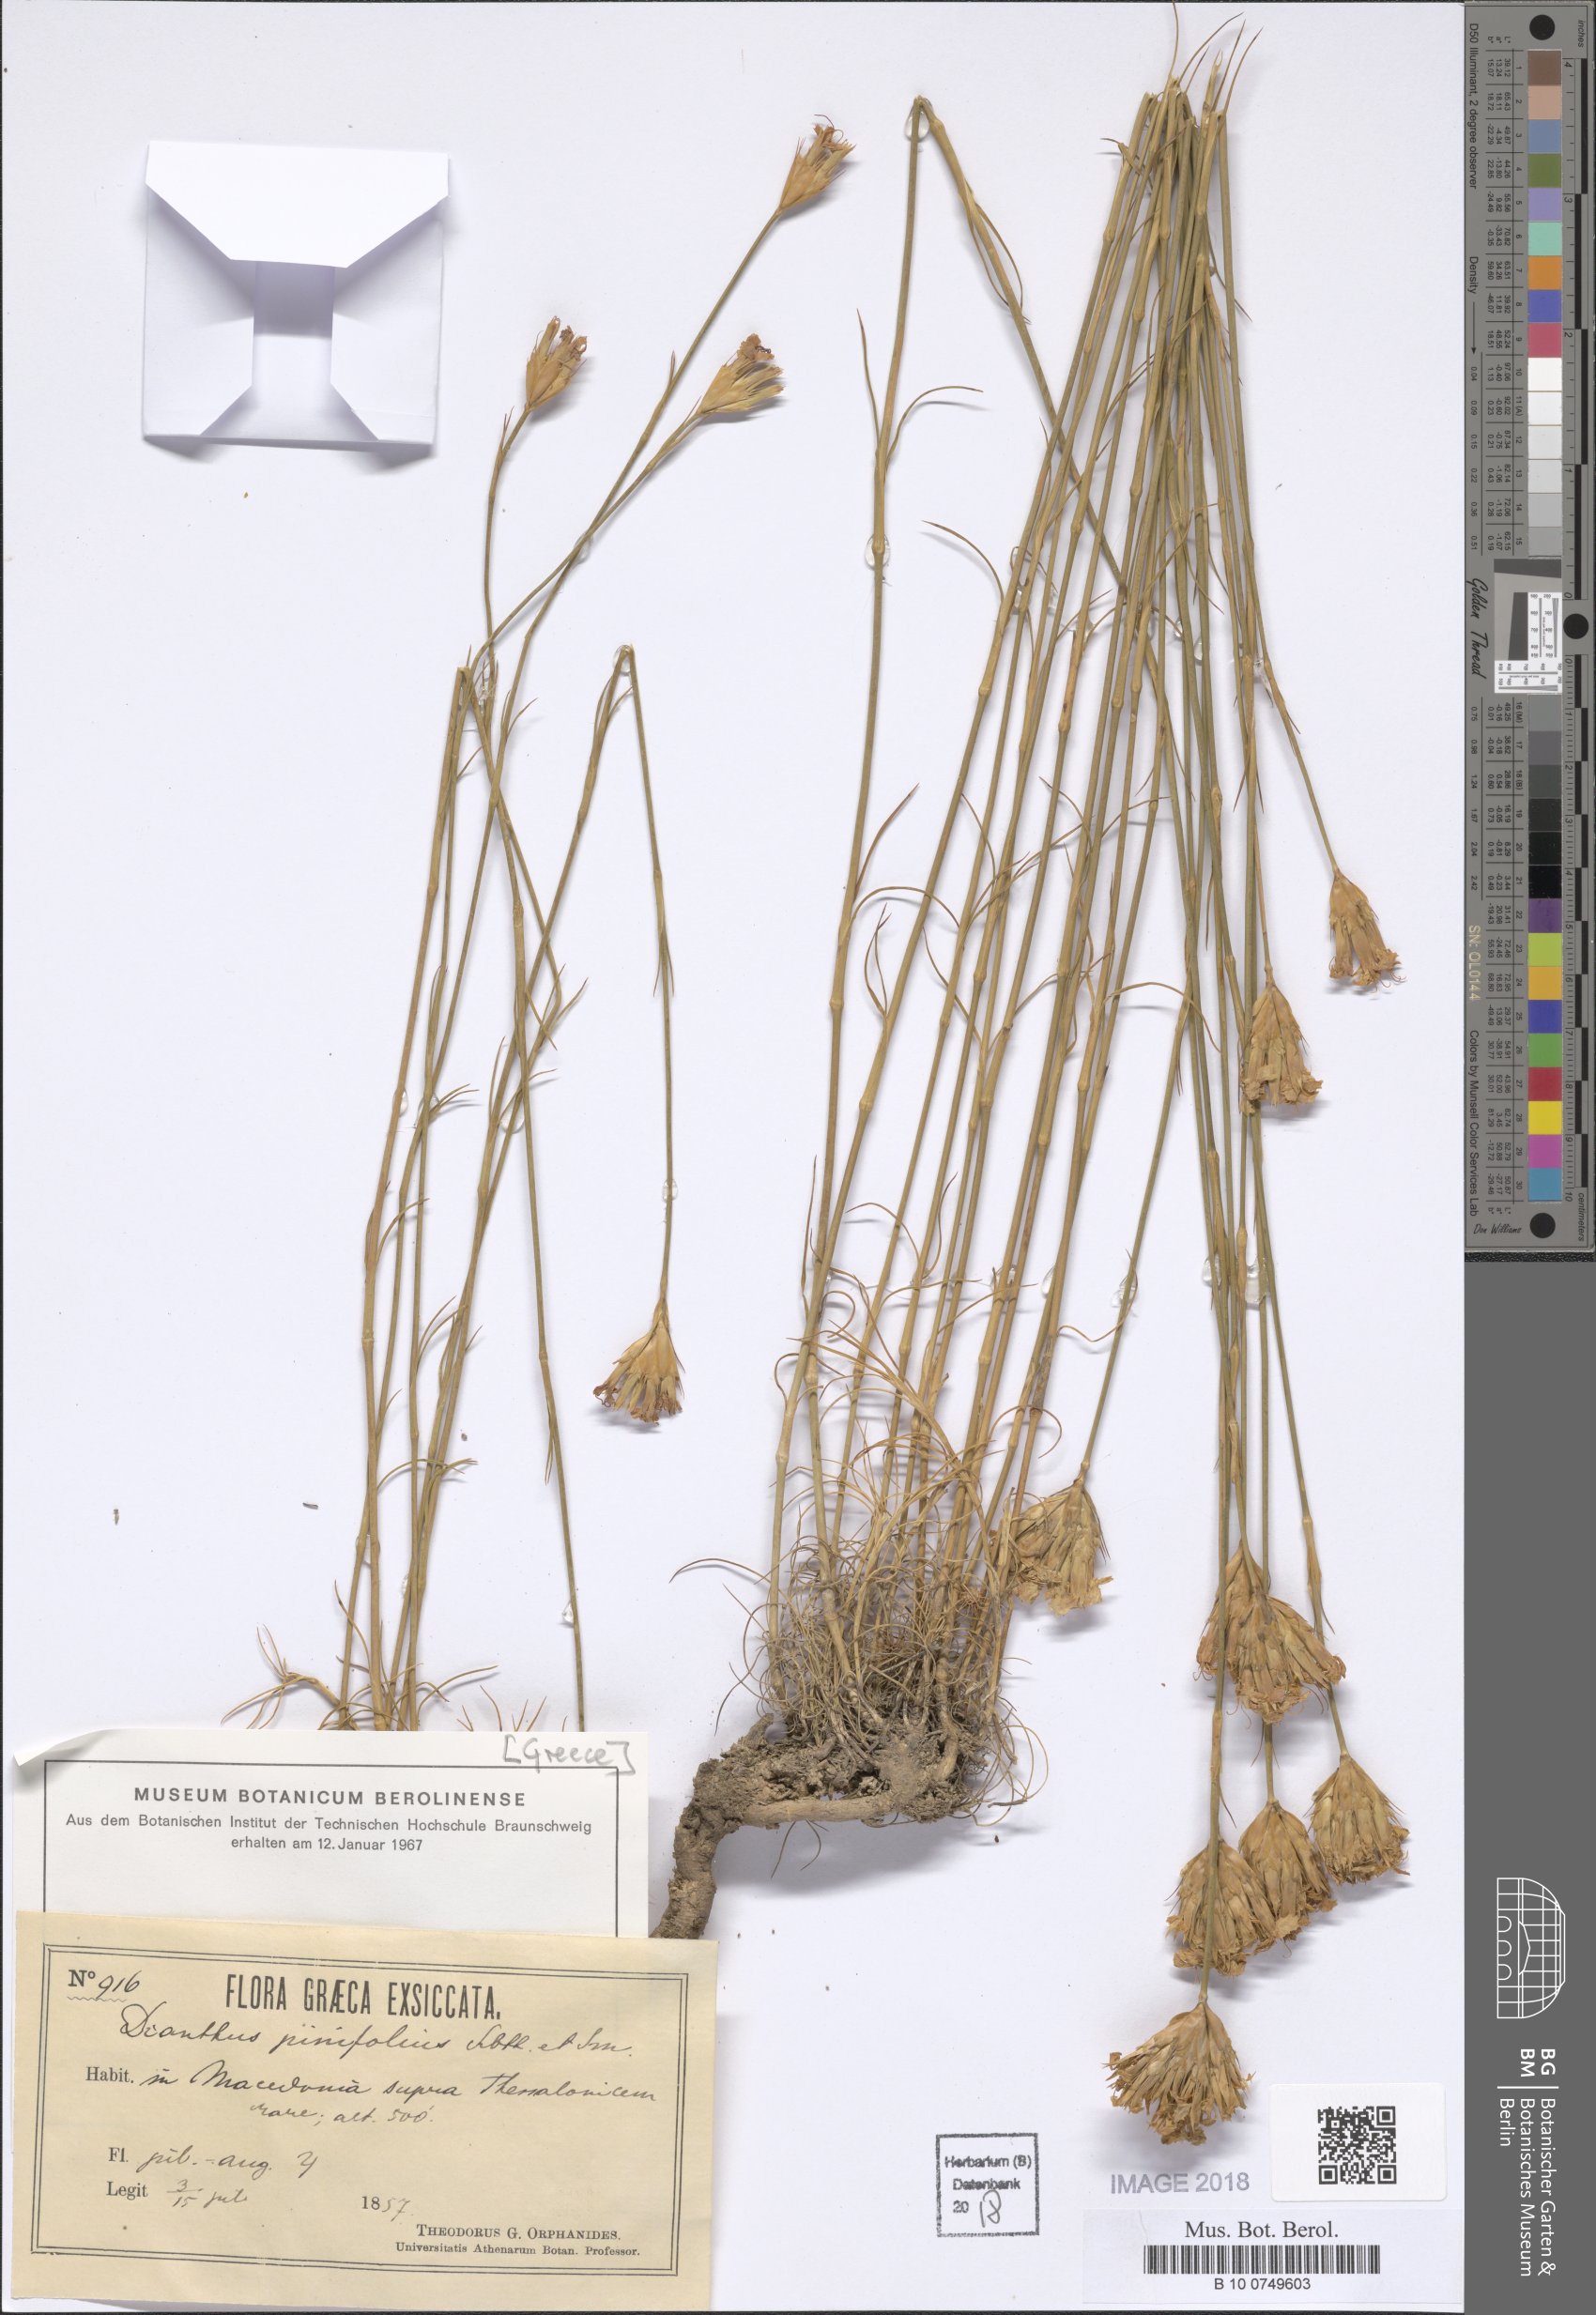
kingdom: Plantae
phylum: Tracheophyta
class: Magnoliopsida
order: Caryophyllales
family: Caryophyllaceae
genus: Dianthus
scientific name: Dianthus pinifolius
